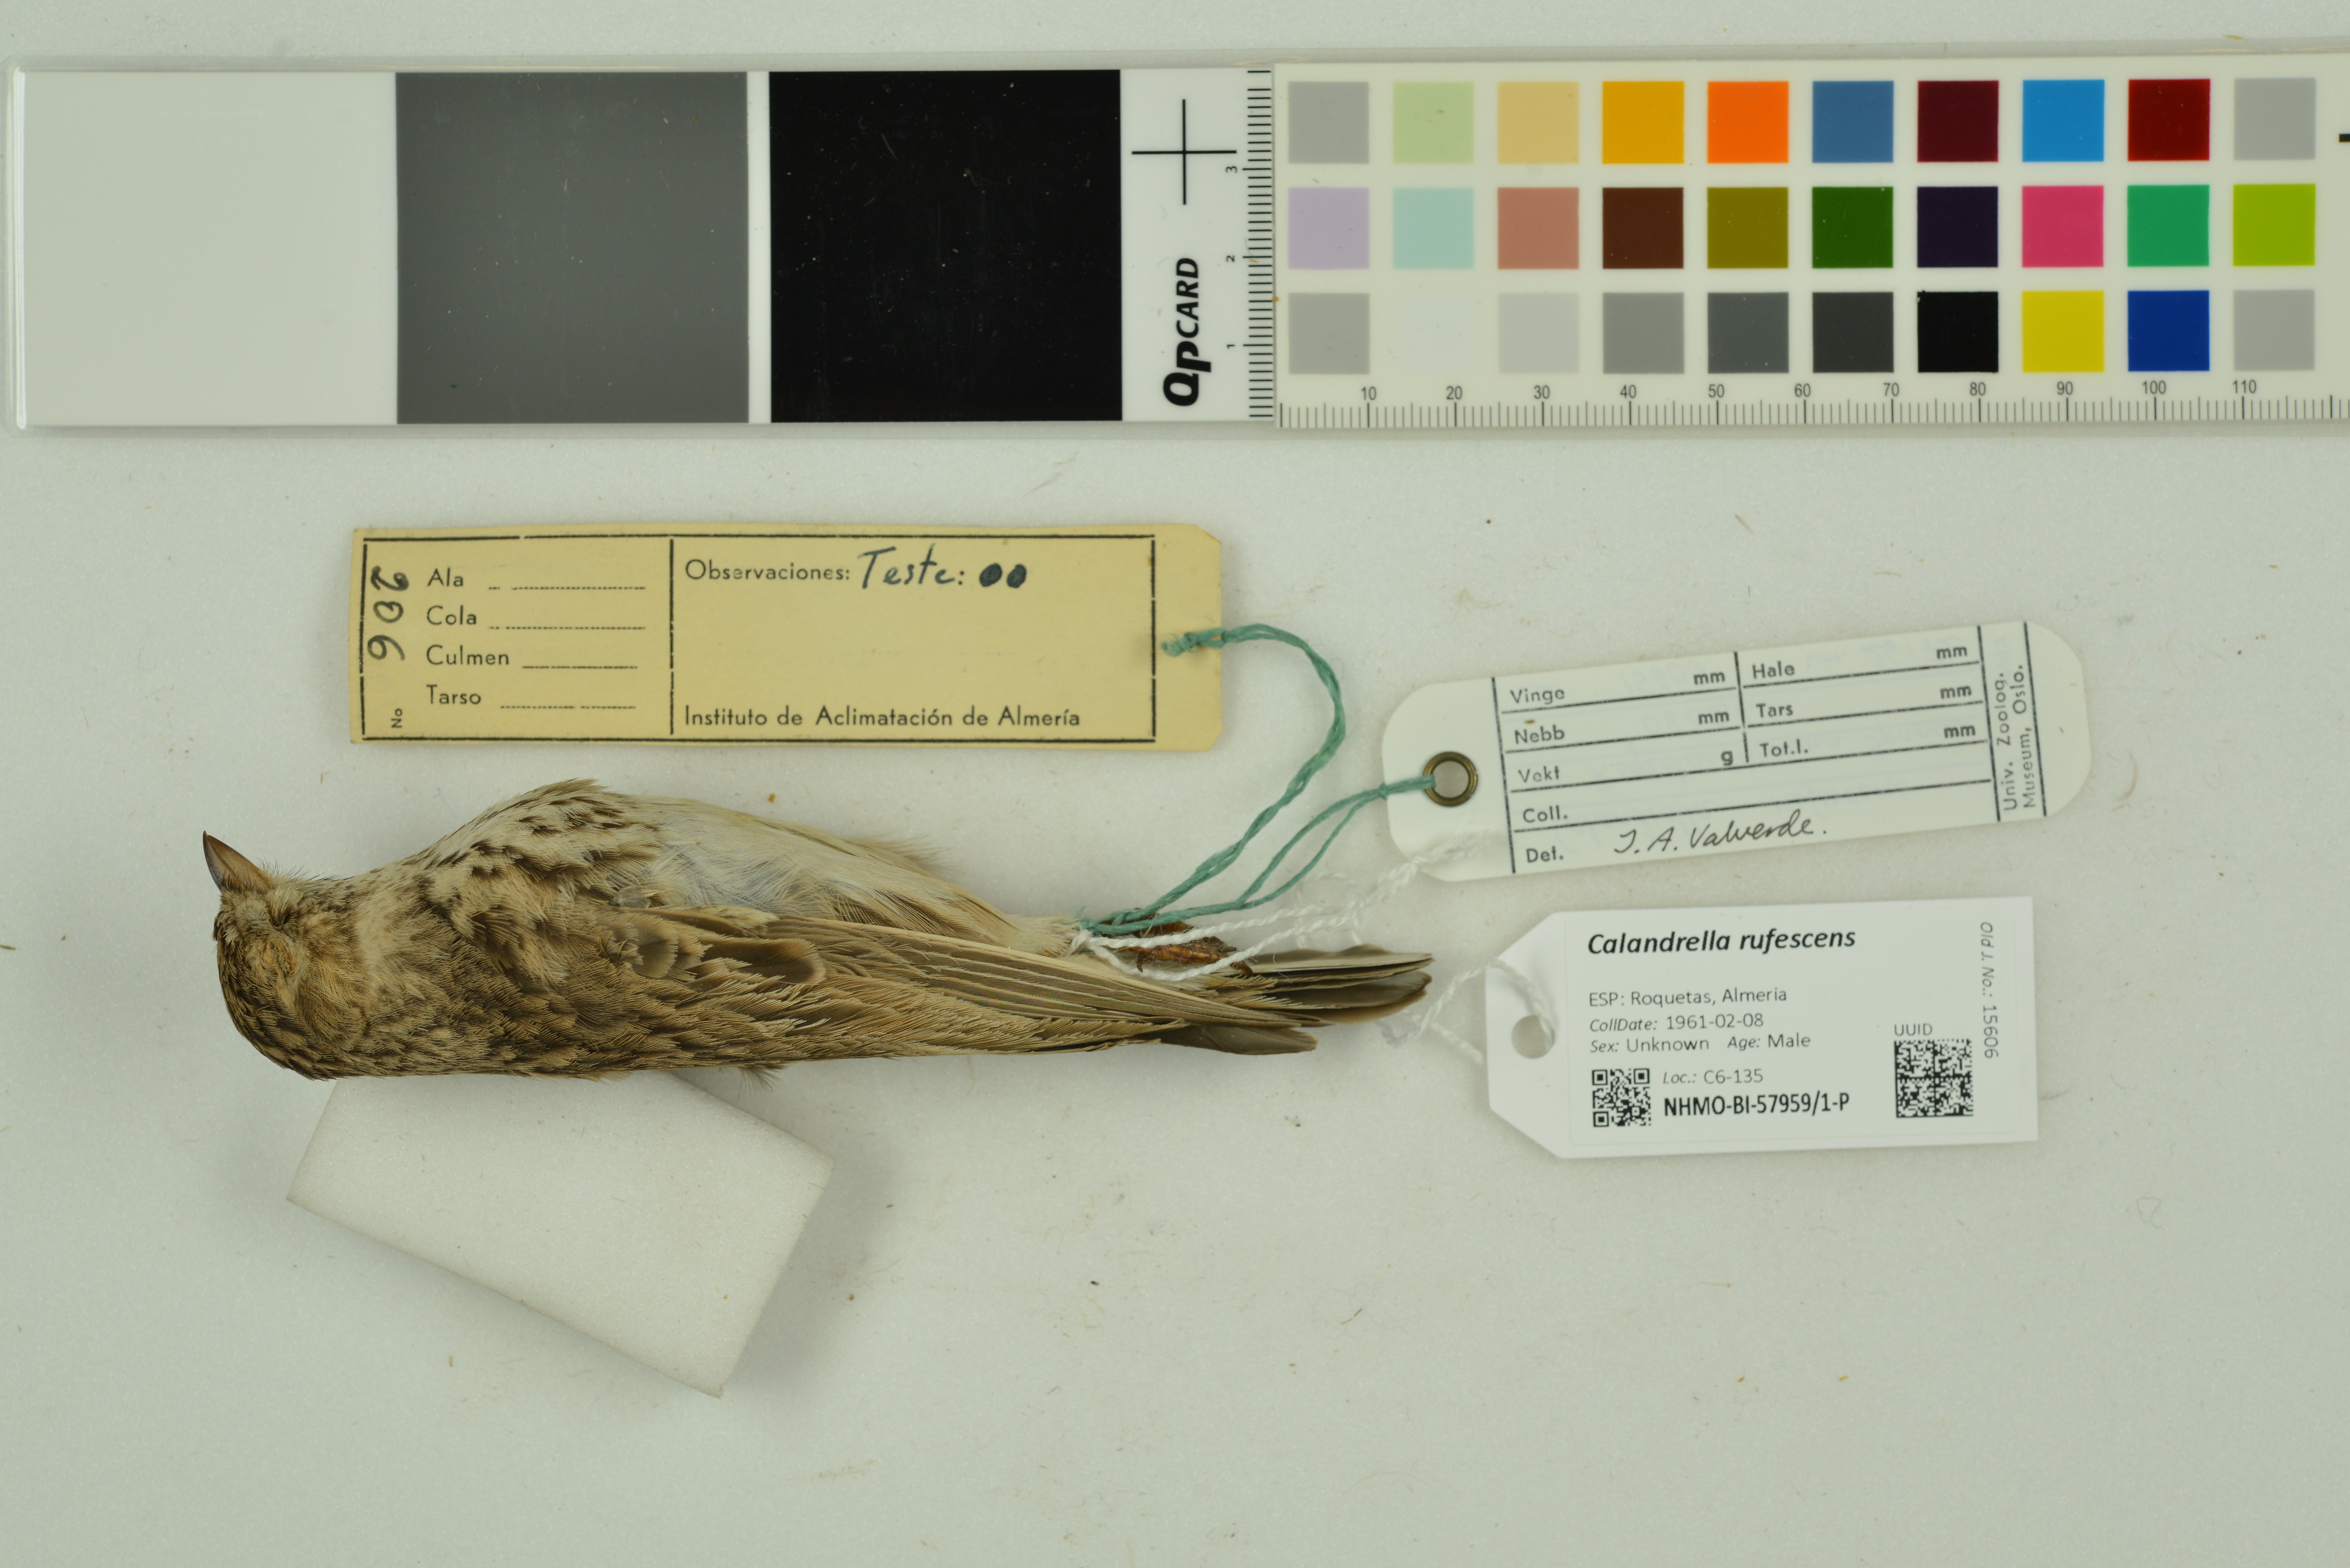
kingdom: Animalia
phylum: Chordata
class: Aves
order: Passeriformes
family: Alaudidae
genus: Calandrella
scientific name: Calandrella rufescens
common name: Lesser short-toed lark
